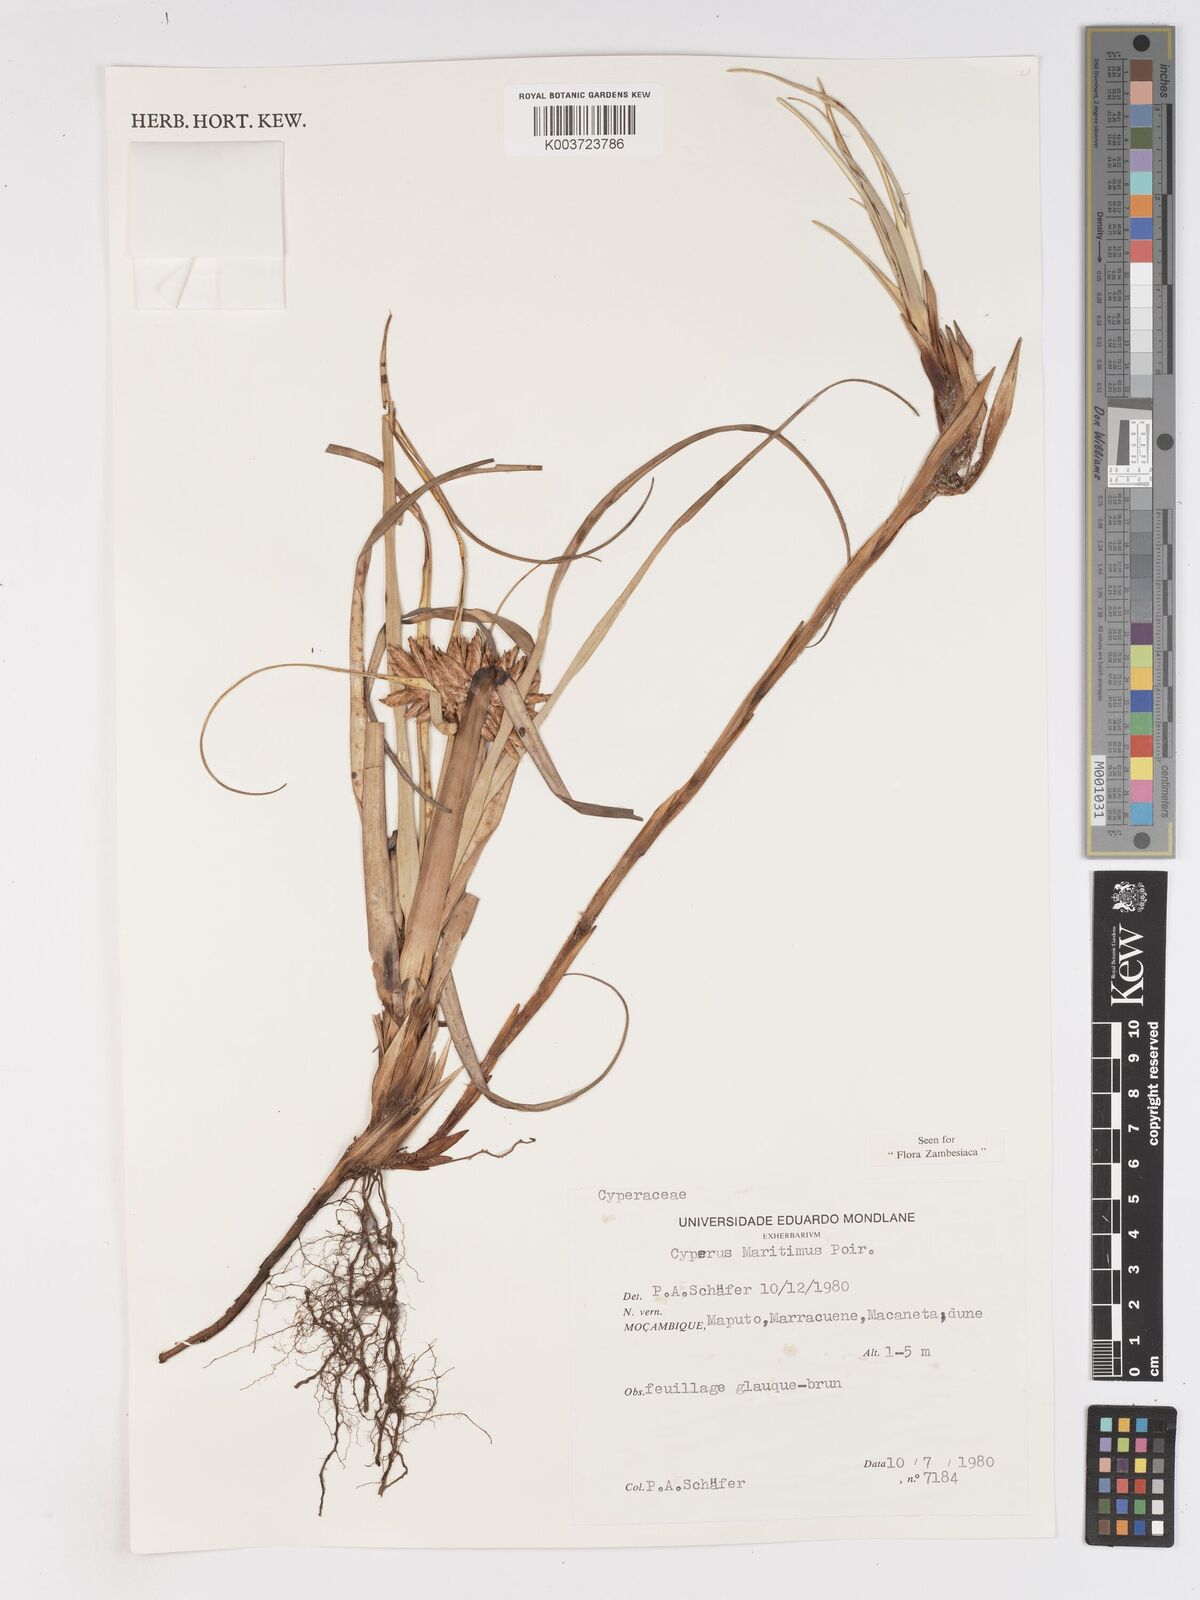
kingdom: Plantae
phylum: Tracheophyta
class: Liliopsida
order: Poales
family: Cyperaceae
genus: Cyperus
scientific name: Cyperus crassipes
